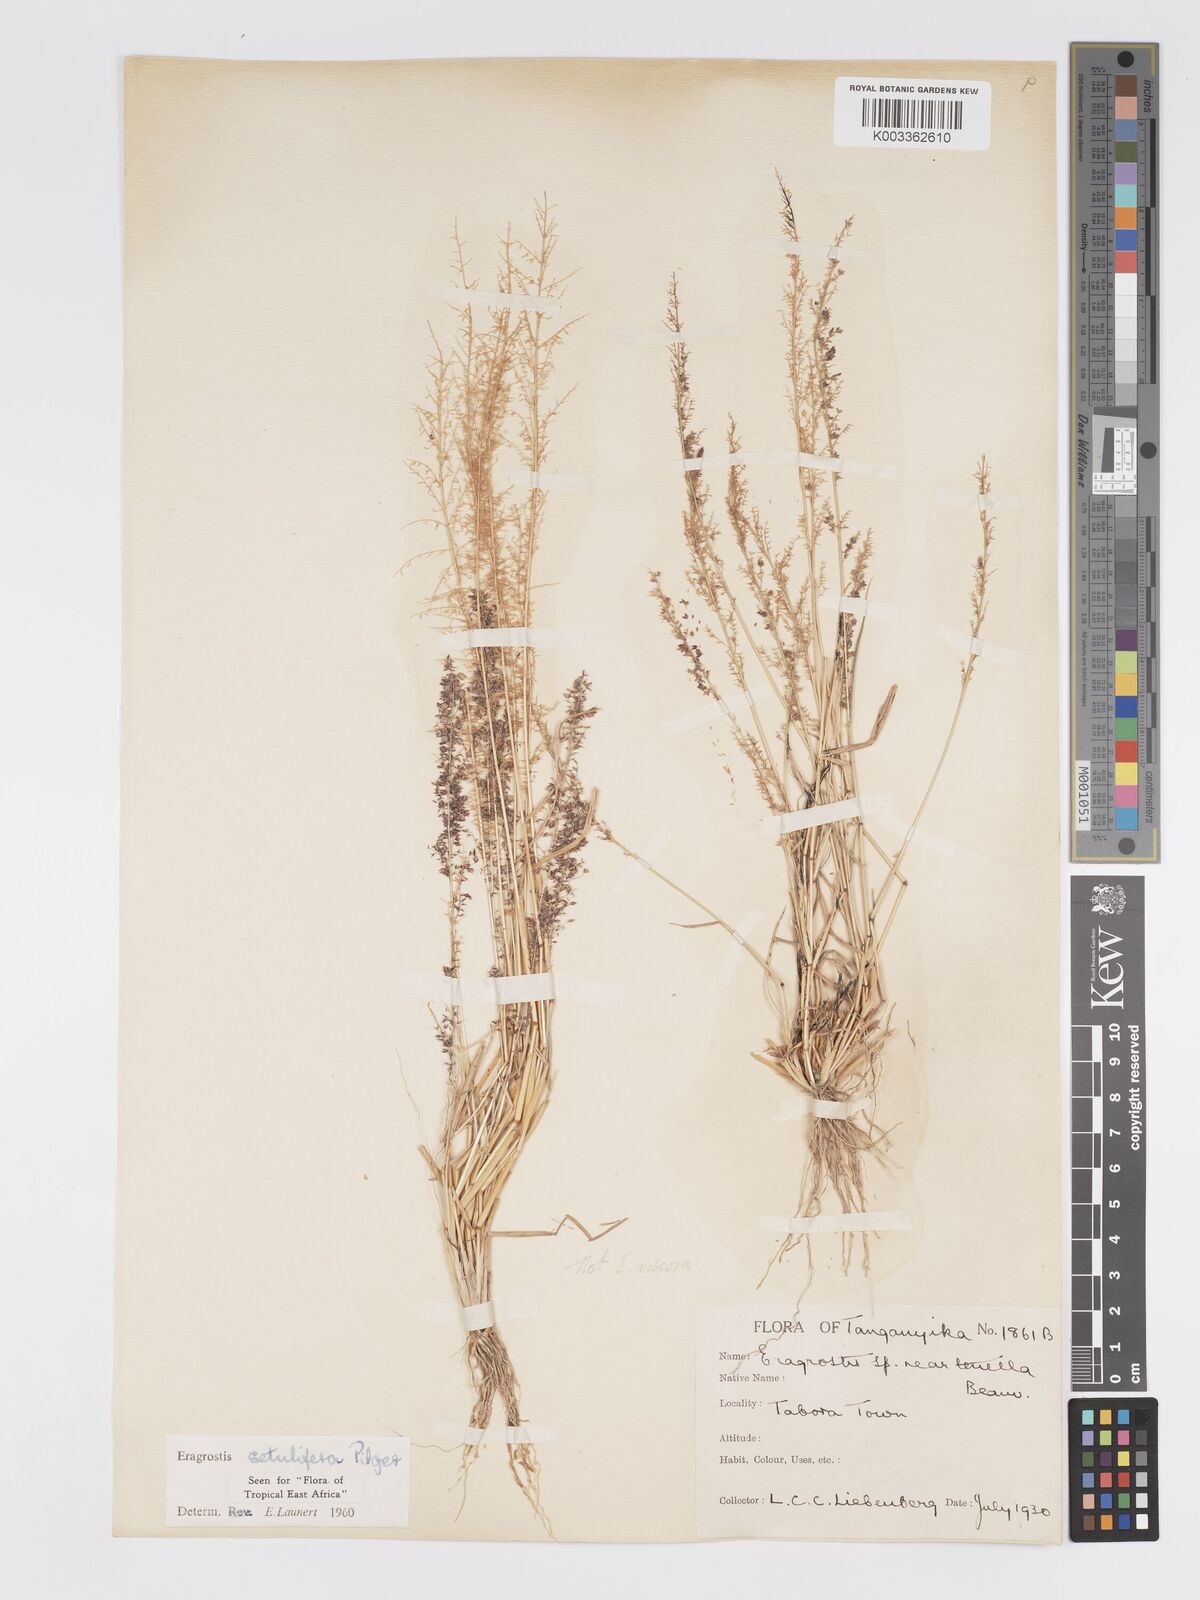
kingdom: Plantae
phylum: Tracheophyta
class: Liliopsida
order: Poales
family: Poaceae
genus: Eragrostis
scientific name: Eragrostis setulifera
